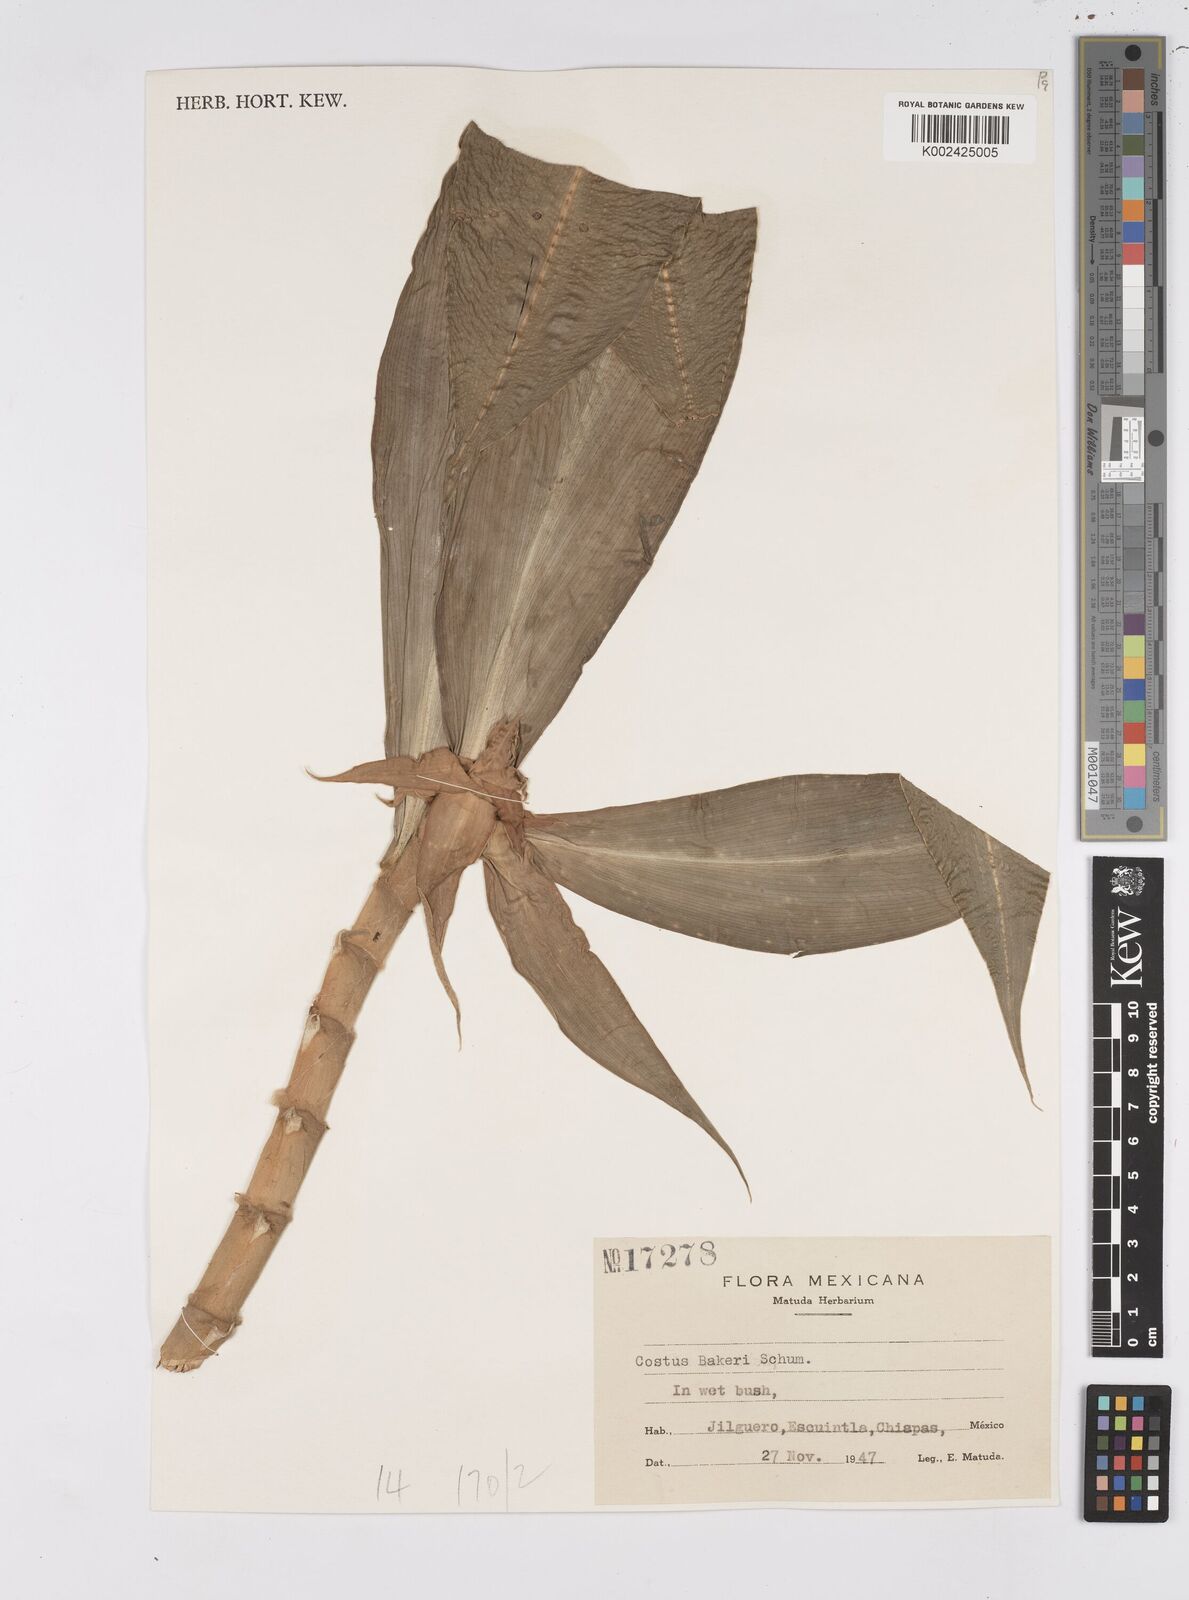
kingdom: Plantae
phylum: Tracheophyta
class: Liliopsida
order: Zingiberales
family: Costaceae
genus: Costus
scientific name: Costus comosus
